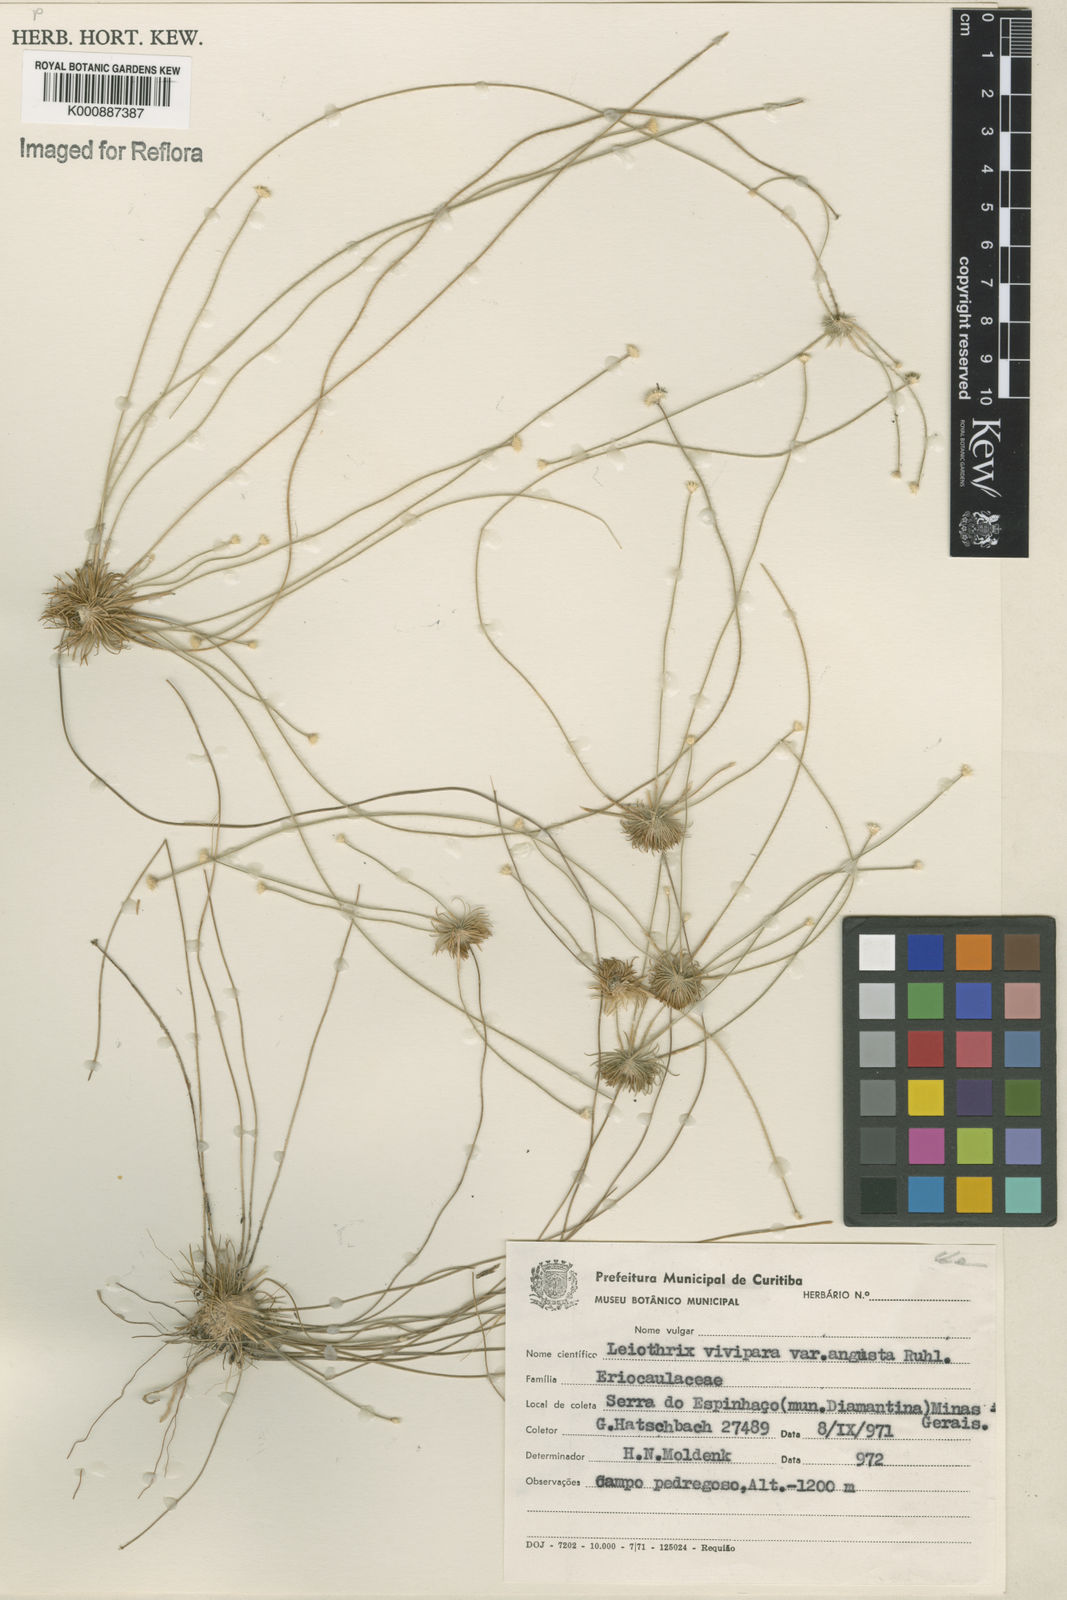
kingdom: Plantae
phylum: Tracheophyta
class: Liliopsida
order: Poales
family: Eriocaulaceae
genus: Leiothrix
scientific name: Leiothrix vivipara
